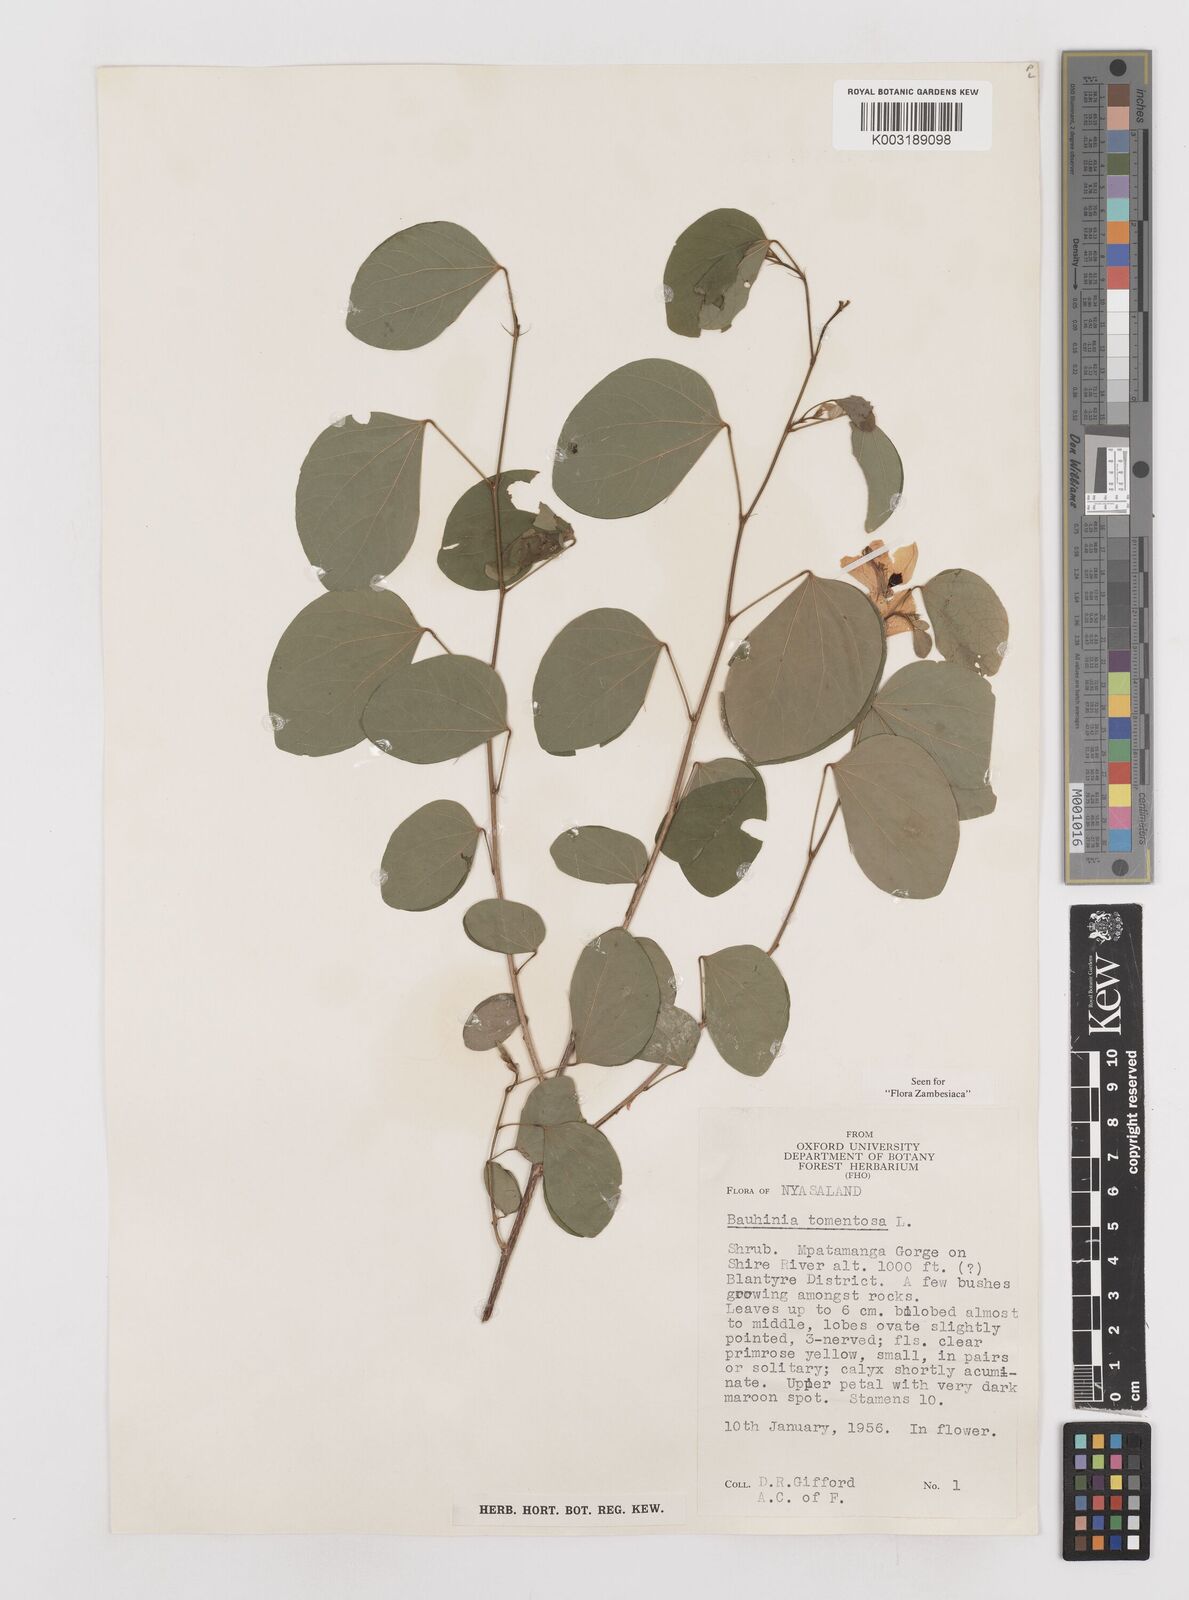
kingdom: Plantae
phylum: Tracheophyta
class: Magnoliopsida
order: Fabales
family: Fabaceae
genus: Bauhinia
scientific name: Bauhinia tomentosa
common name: Bell bauhinia
